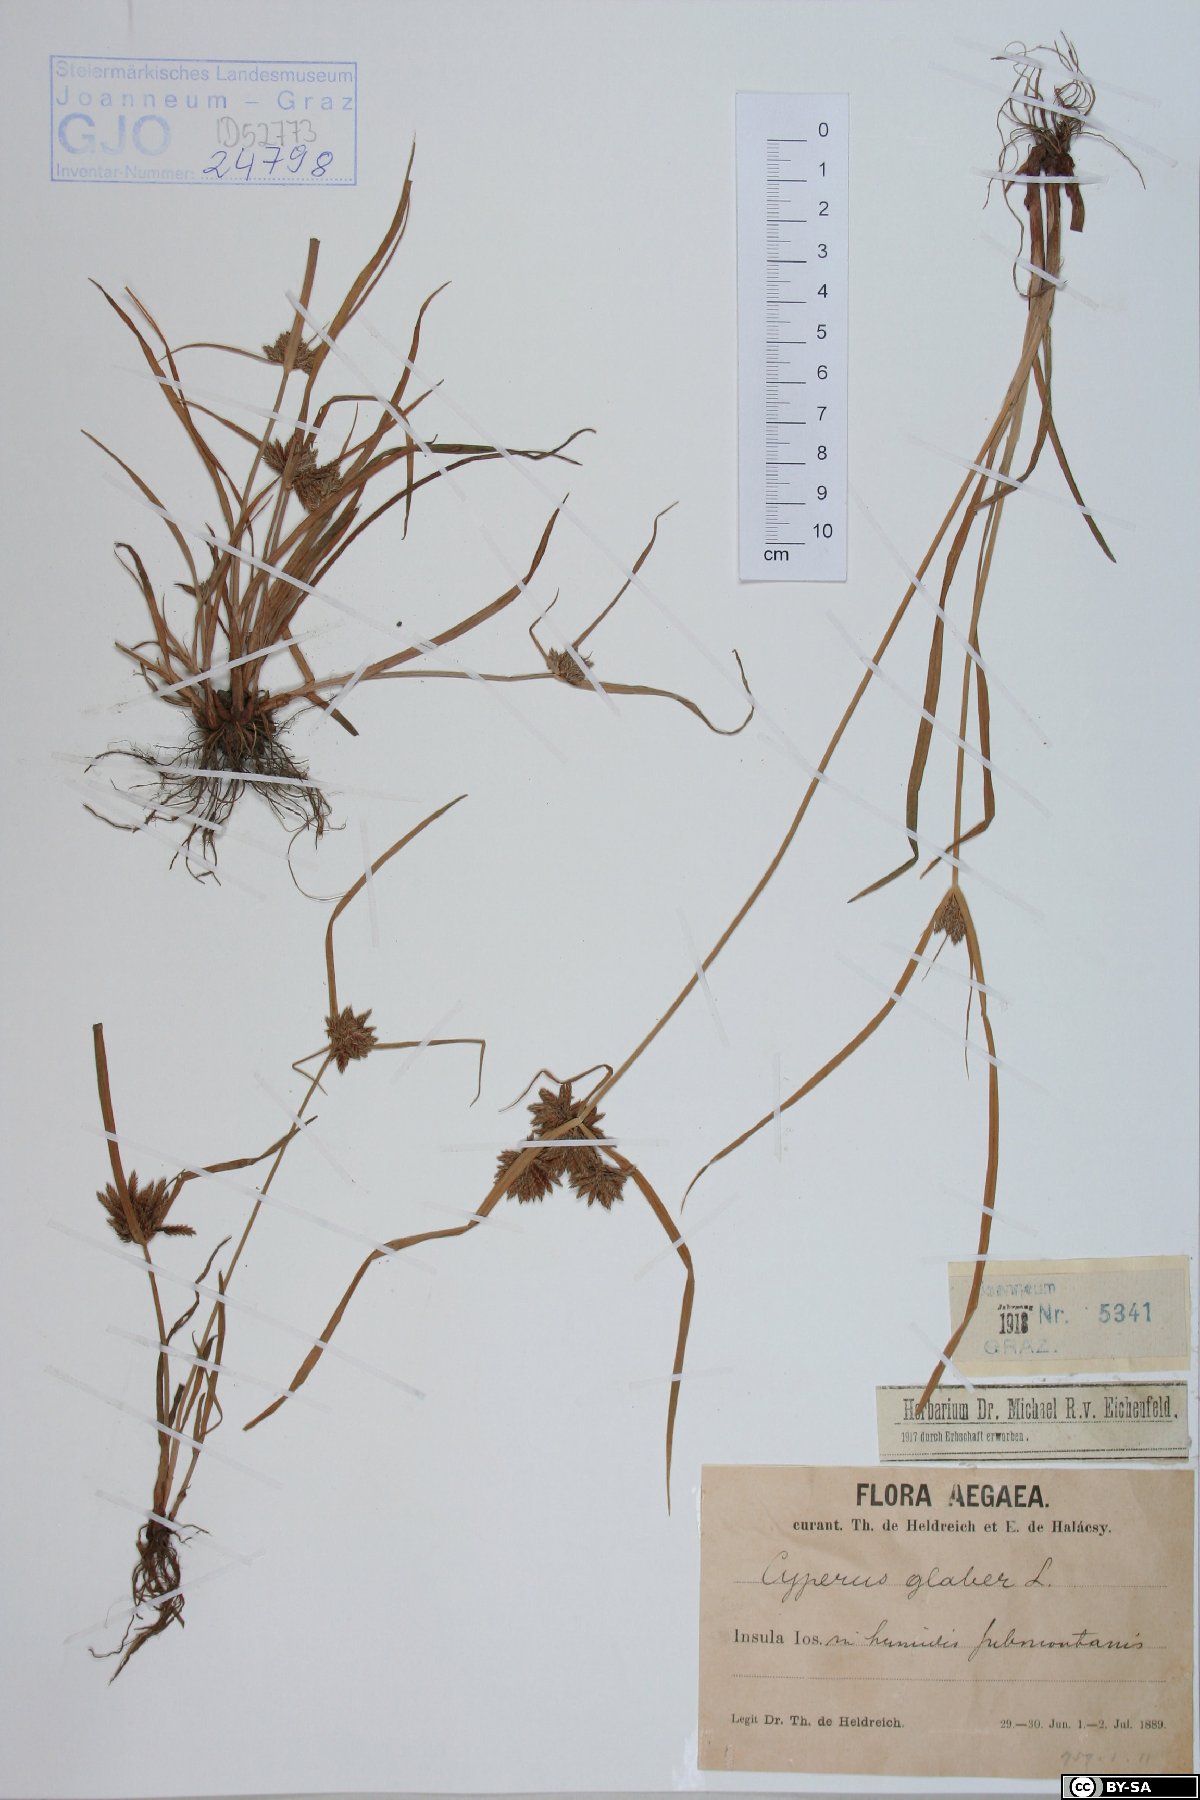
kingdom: Plantae
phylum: Tracheophyta
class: Liliopsida
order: Poales
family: Cyperaceae
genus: Cyperus
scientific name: Cyperus glaber
